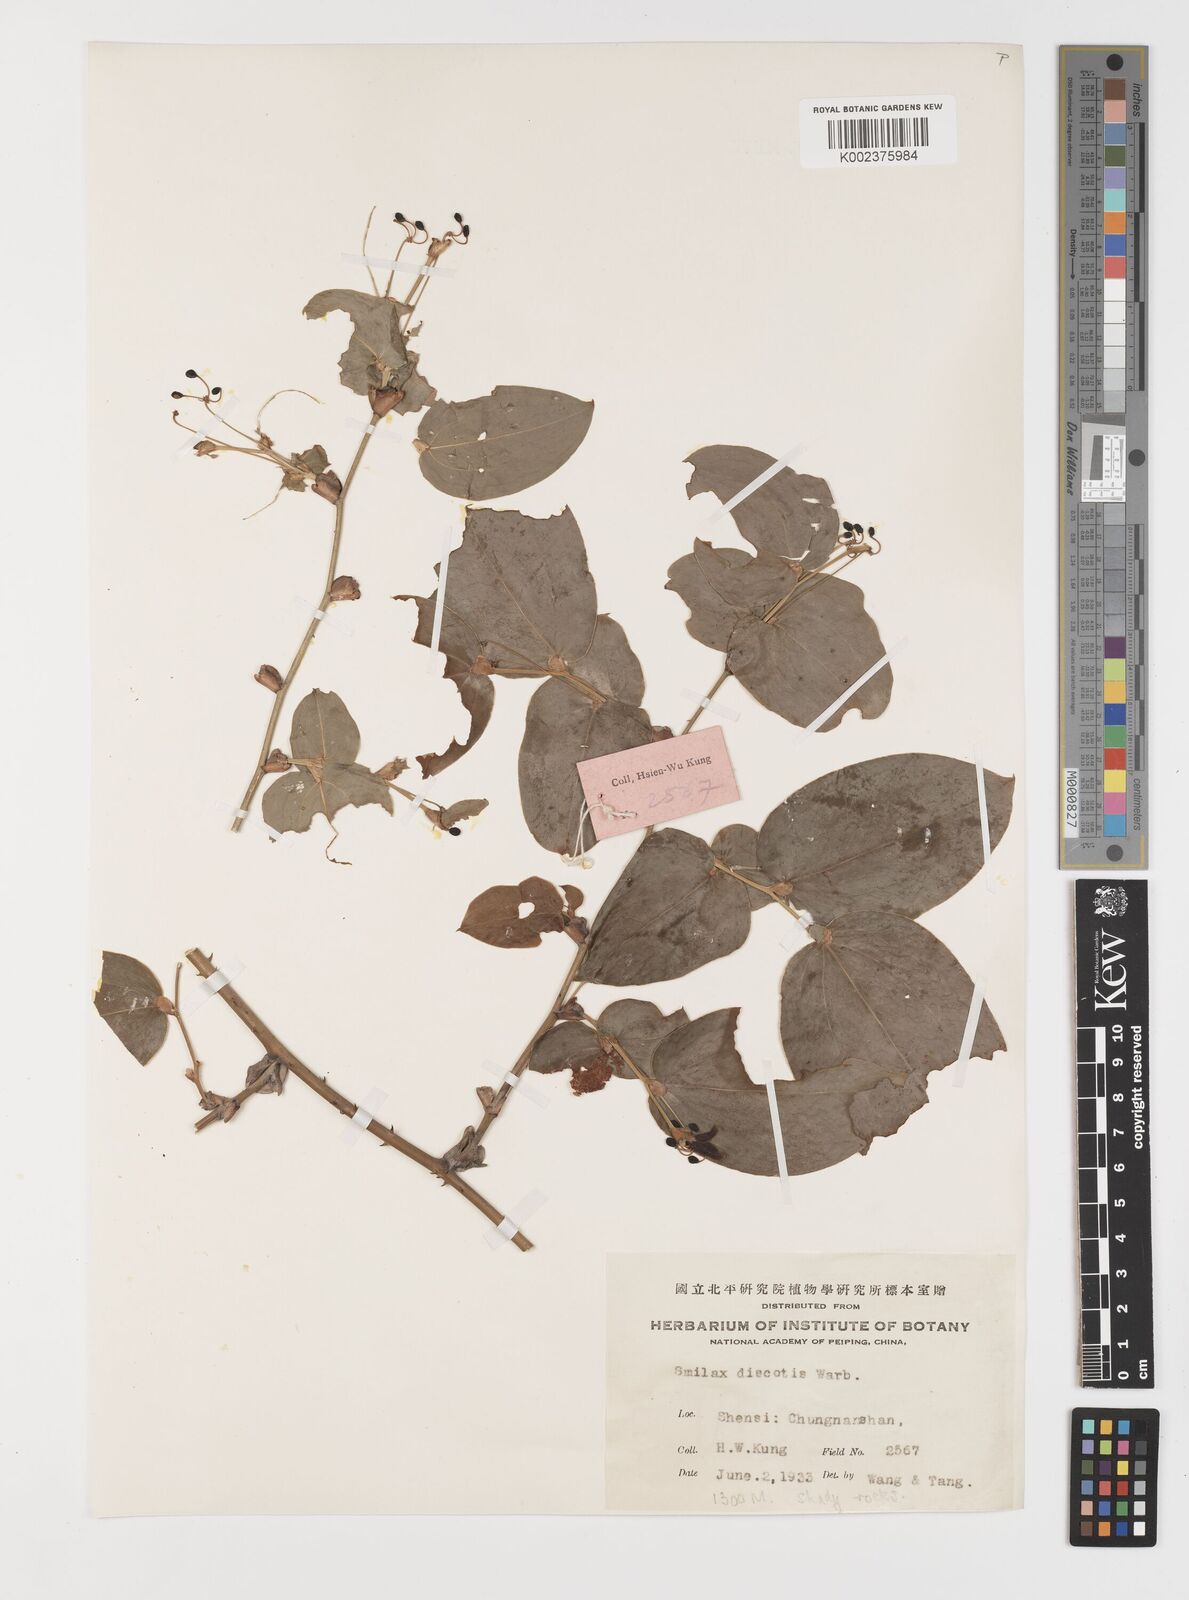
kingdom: Plantae
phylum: Tracheophyta
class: Liliopsida
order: Liliales
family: Smilacaceae
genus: Smilax
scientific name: Smilax discotis
